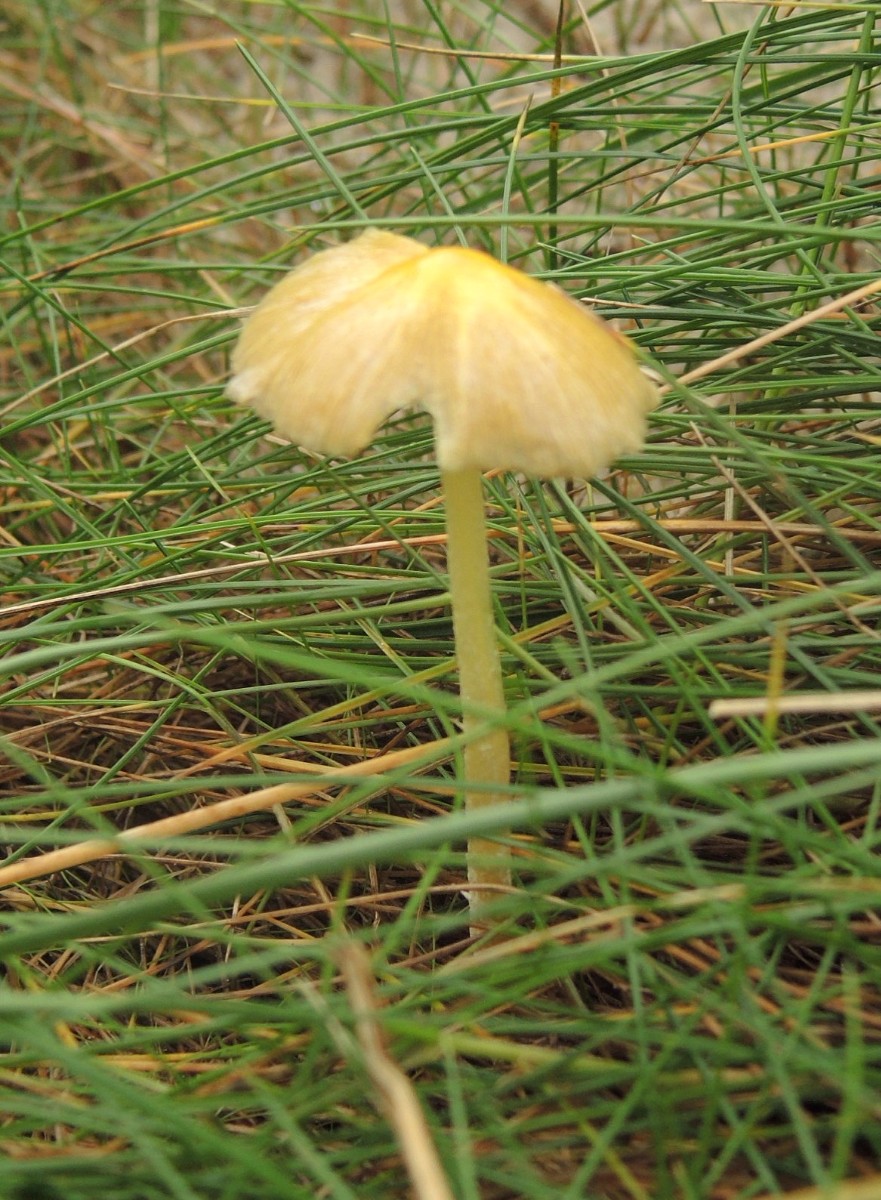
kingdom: Fungi
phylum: Basidiomycota
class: Agaricomycetes
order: Agaricales
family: Bolbitiaceae
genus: Bolbitius
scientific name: Bolbitius titubans
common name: almindelig gulhat
